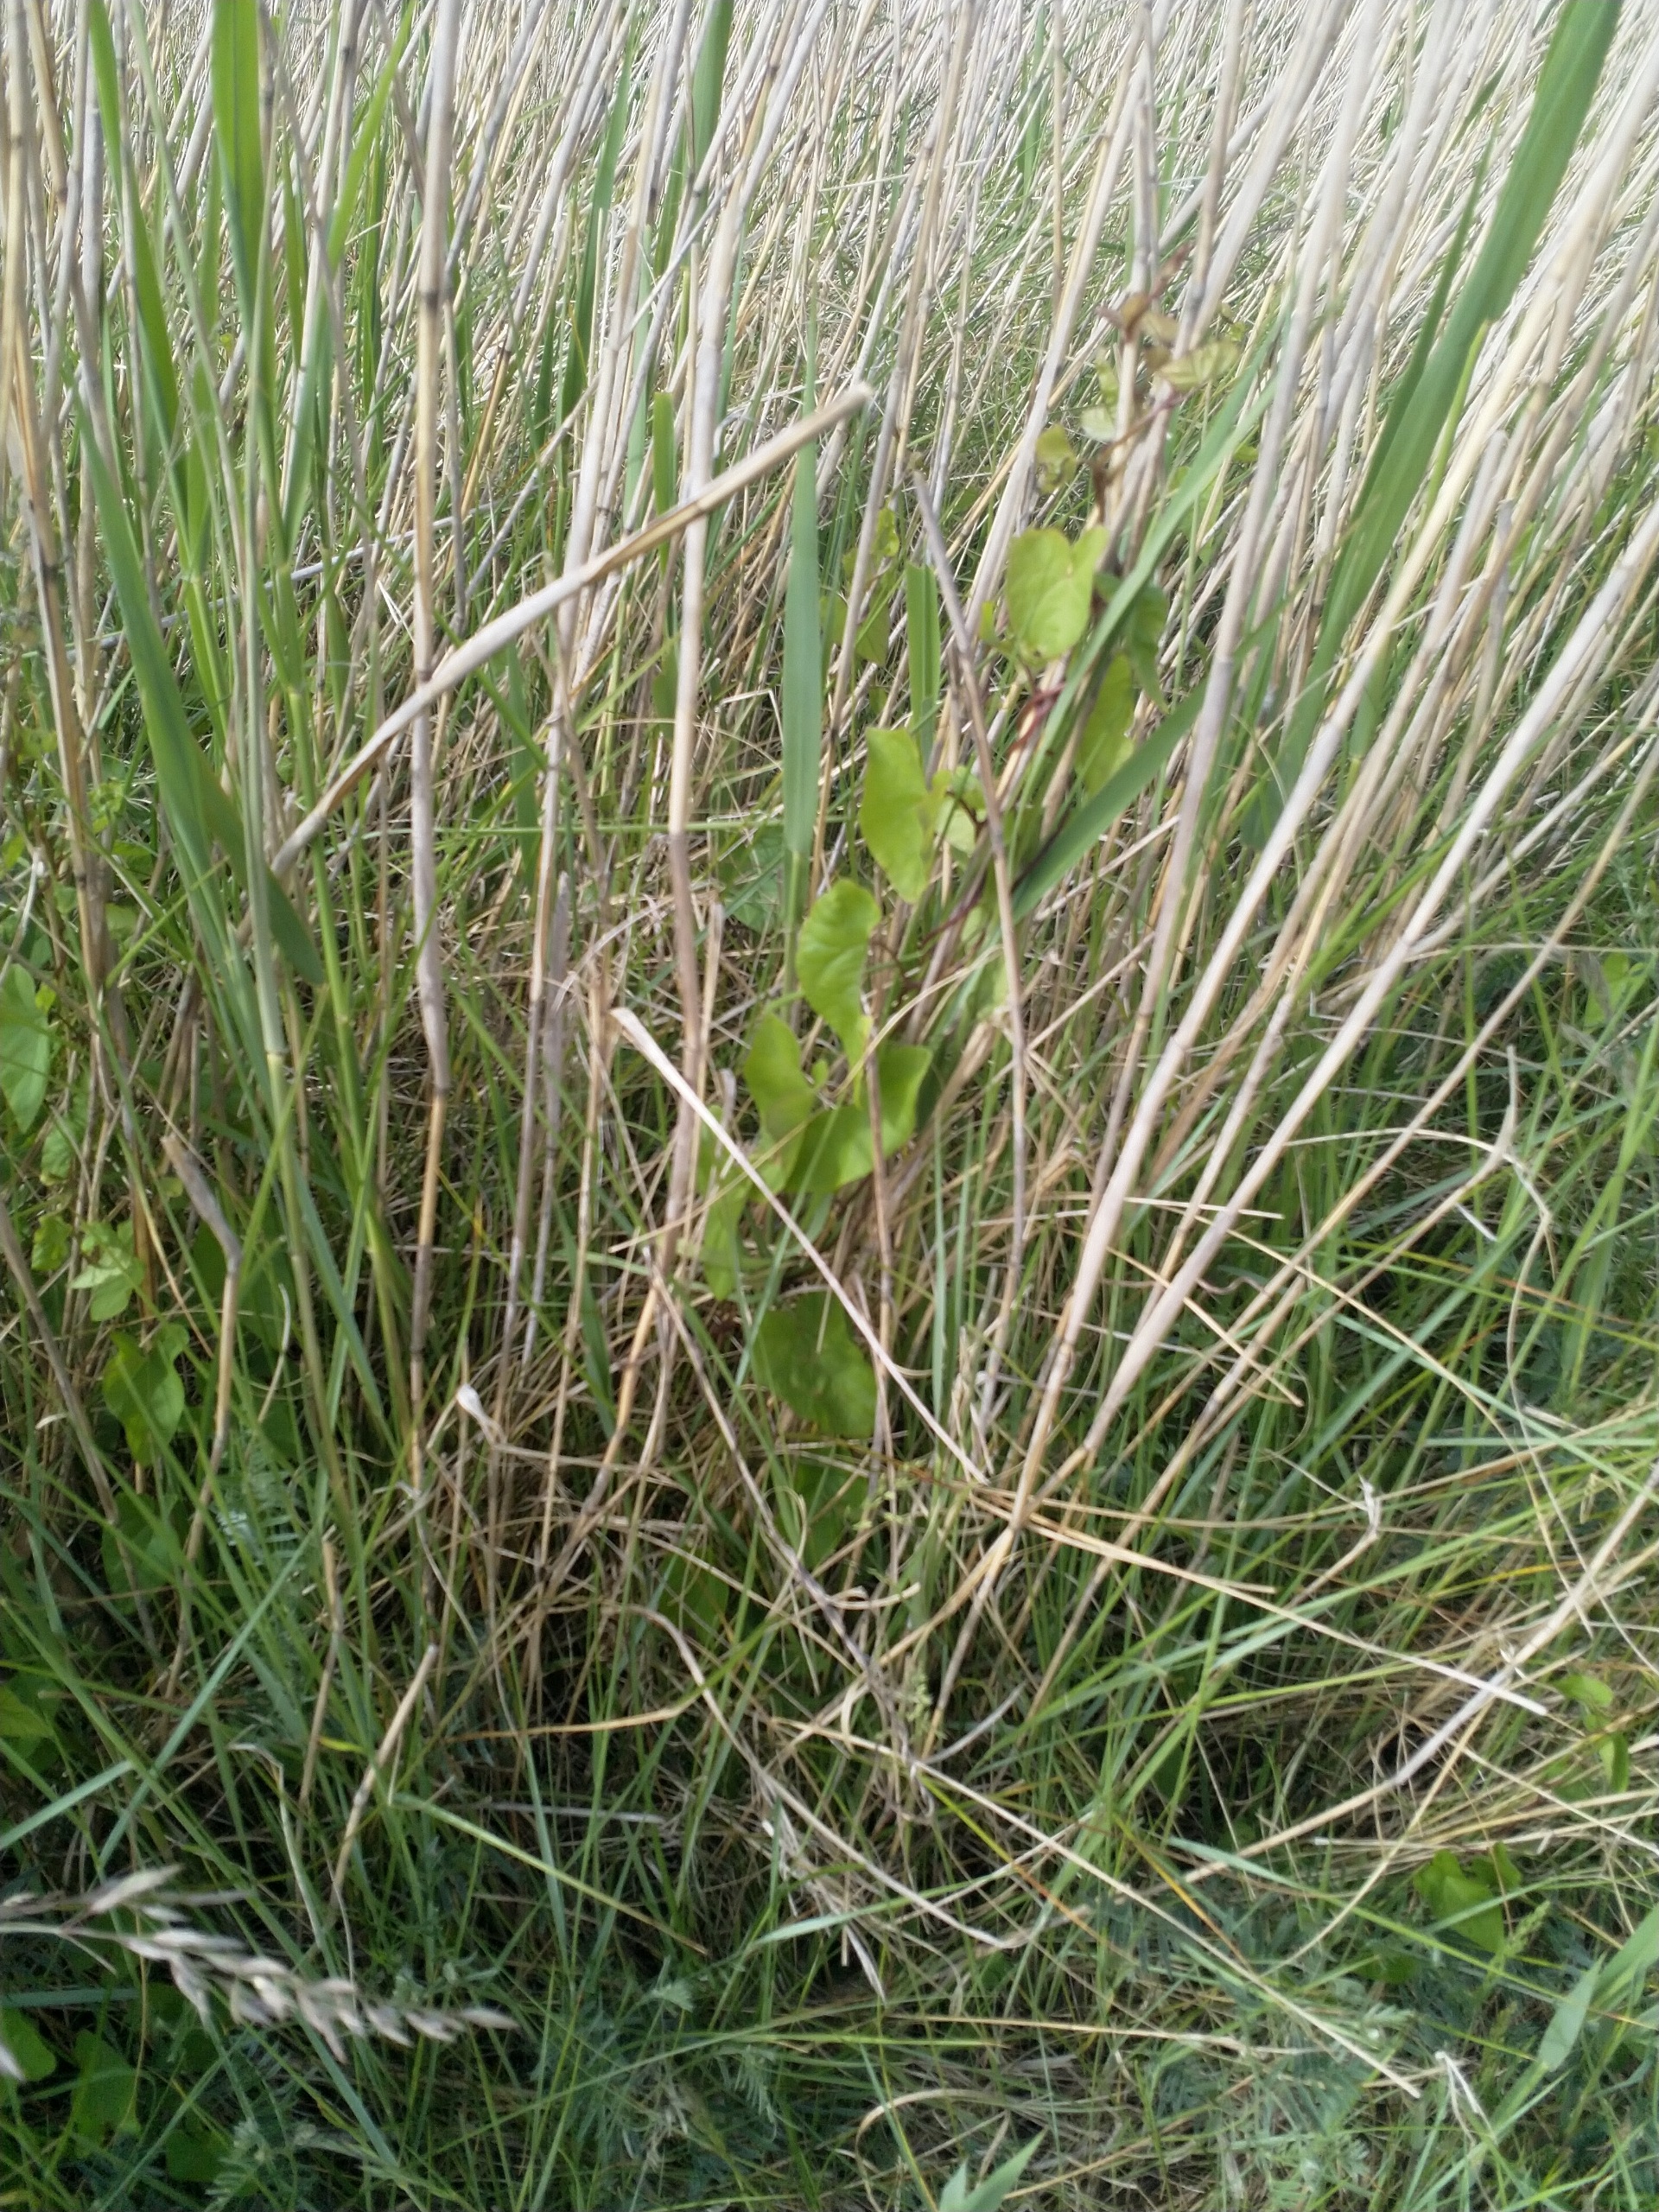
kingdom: Plantae
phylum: Tracheophyta
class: Magnoliopsida
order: Solanales
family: Convolvulaceae
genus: Calystegia
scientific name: Calystegia sepium
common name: Gærde-snerle
